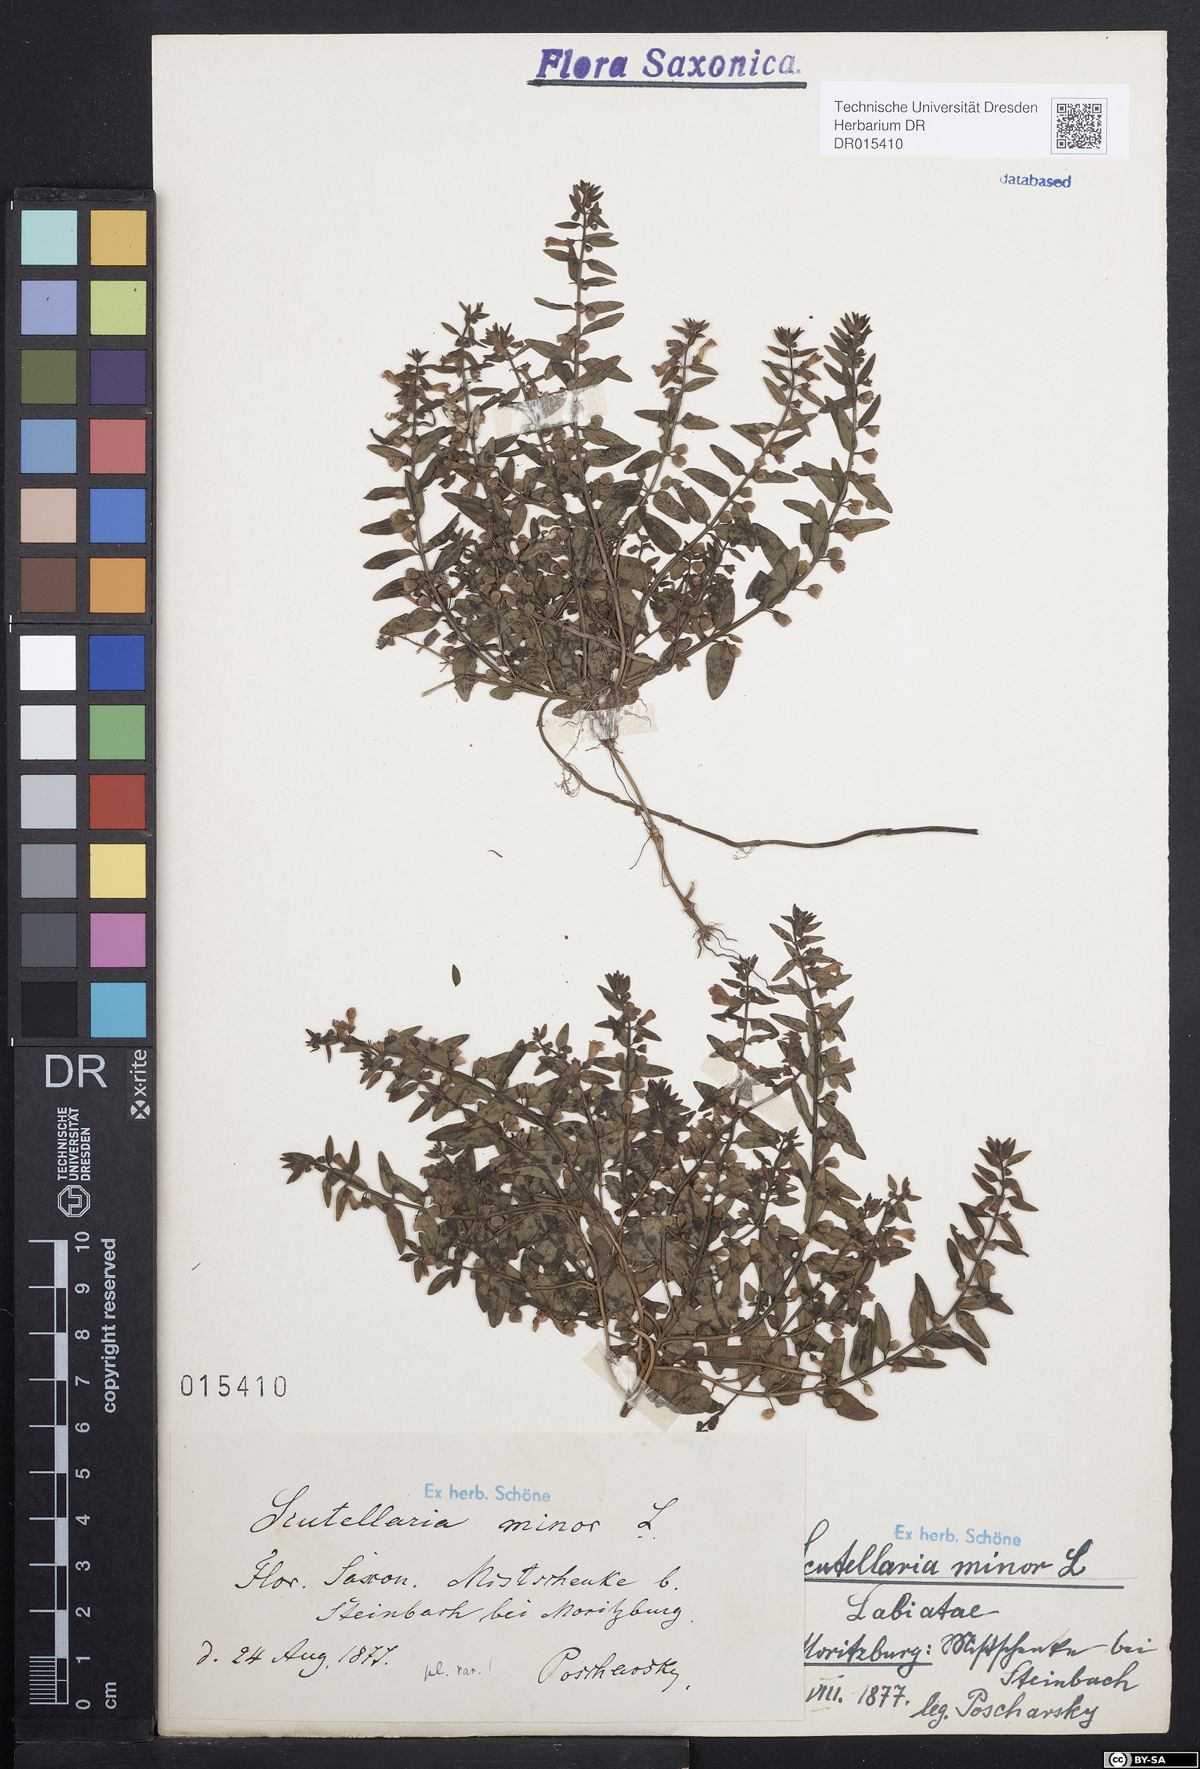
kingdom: Plantae
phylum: Tracheophyta
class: Magnoliopsida
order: Lamiales
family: Lamiaceae
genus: Scutellaria
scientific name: Scutellaria minor
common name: Lesser skullcap
